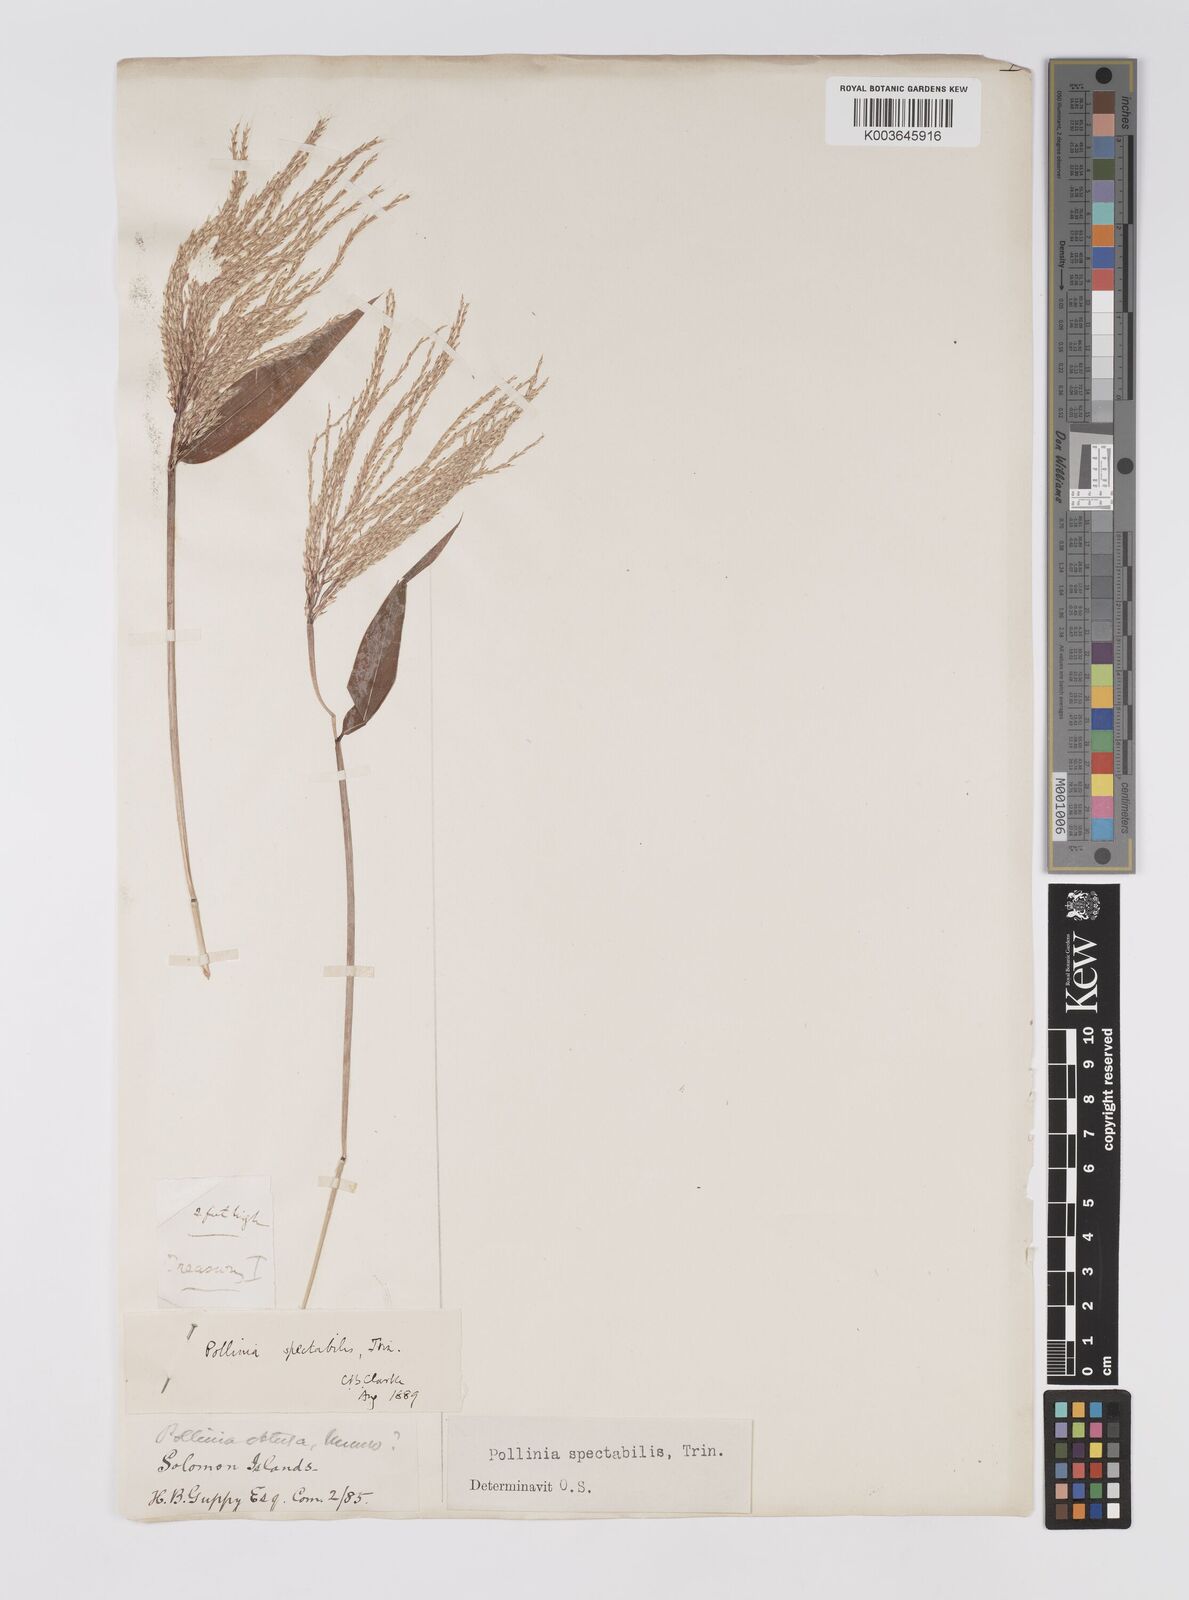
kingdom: Plantae
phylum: Tracheophyta
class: Liliopsida
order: Poales
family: Poaceae
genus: Microstegium
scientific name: Microstegium spectabile
